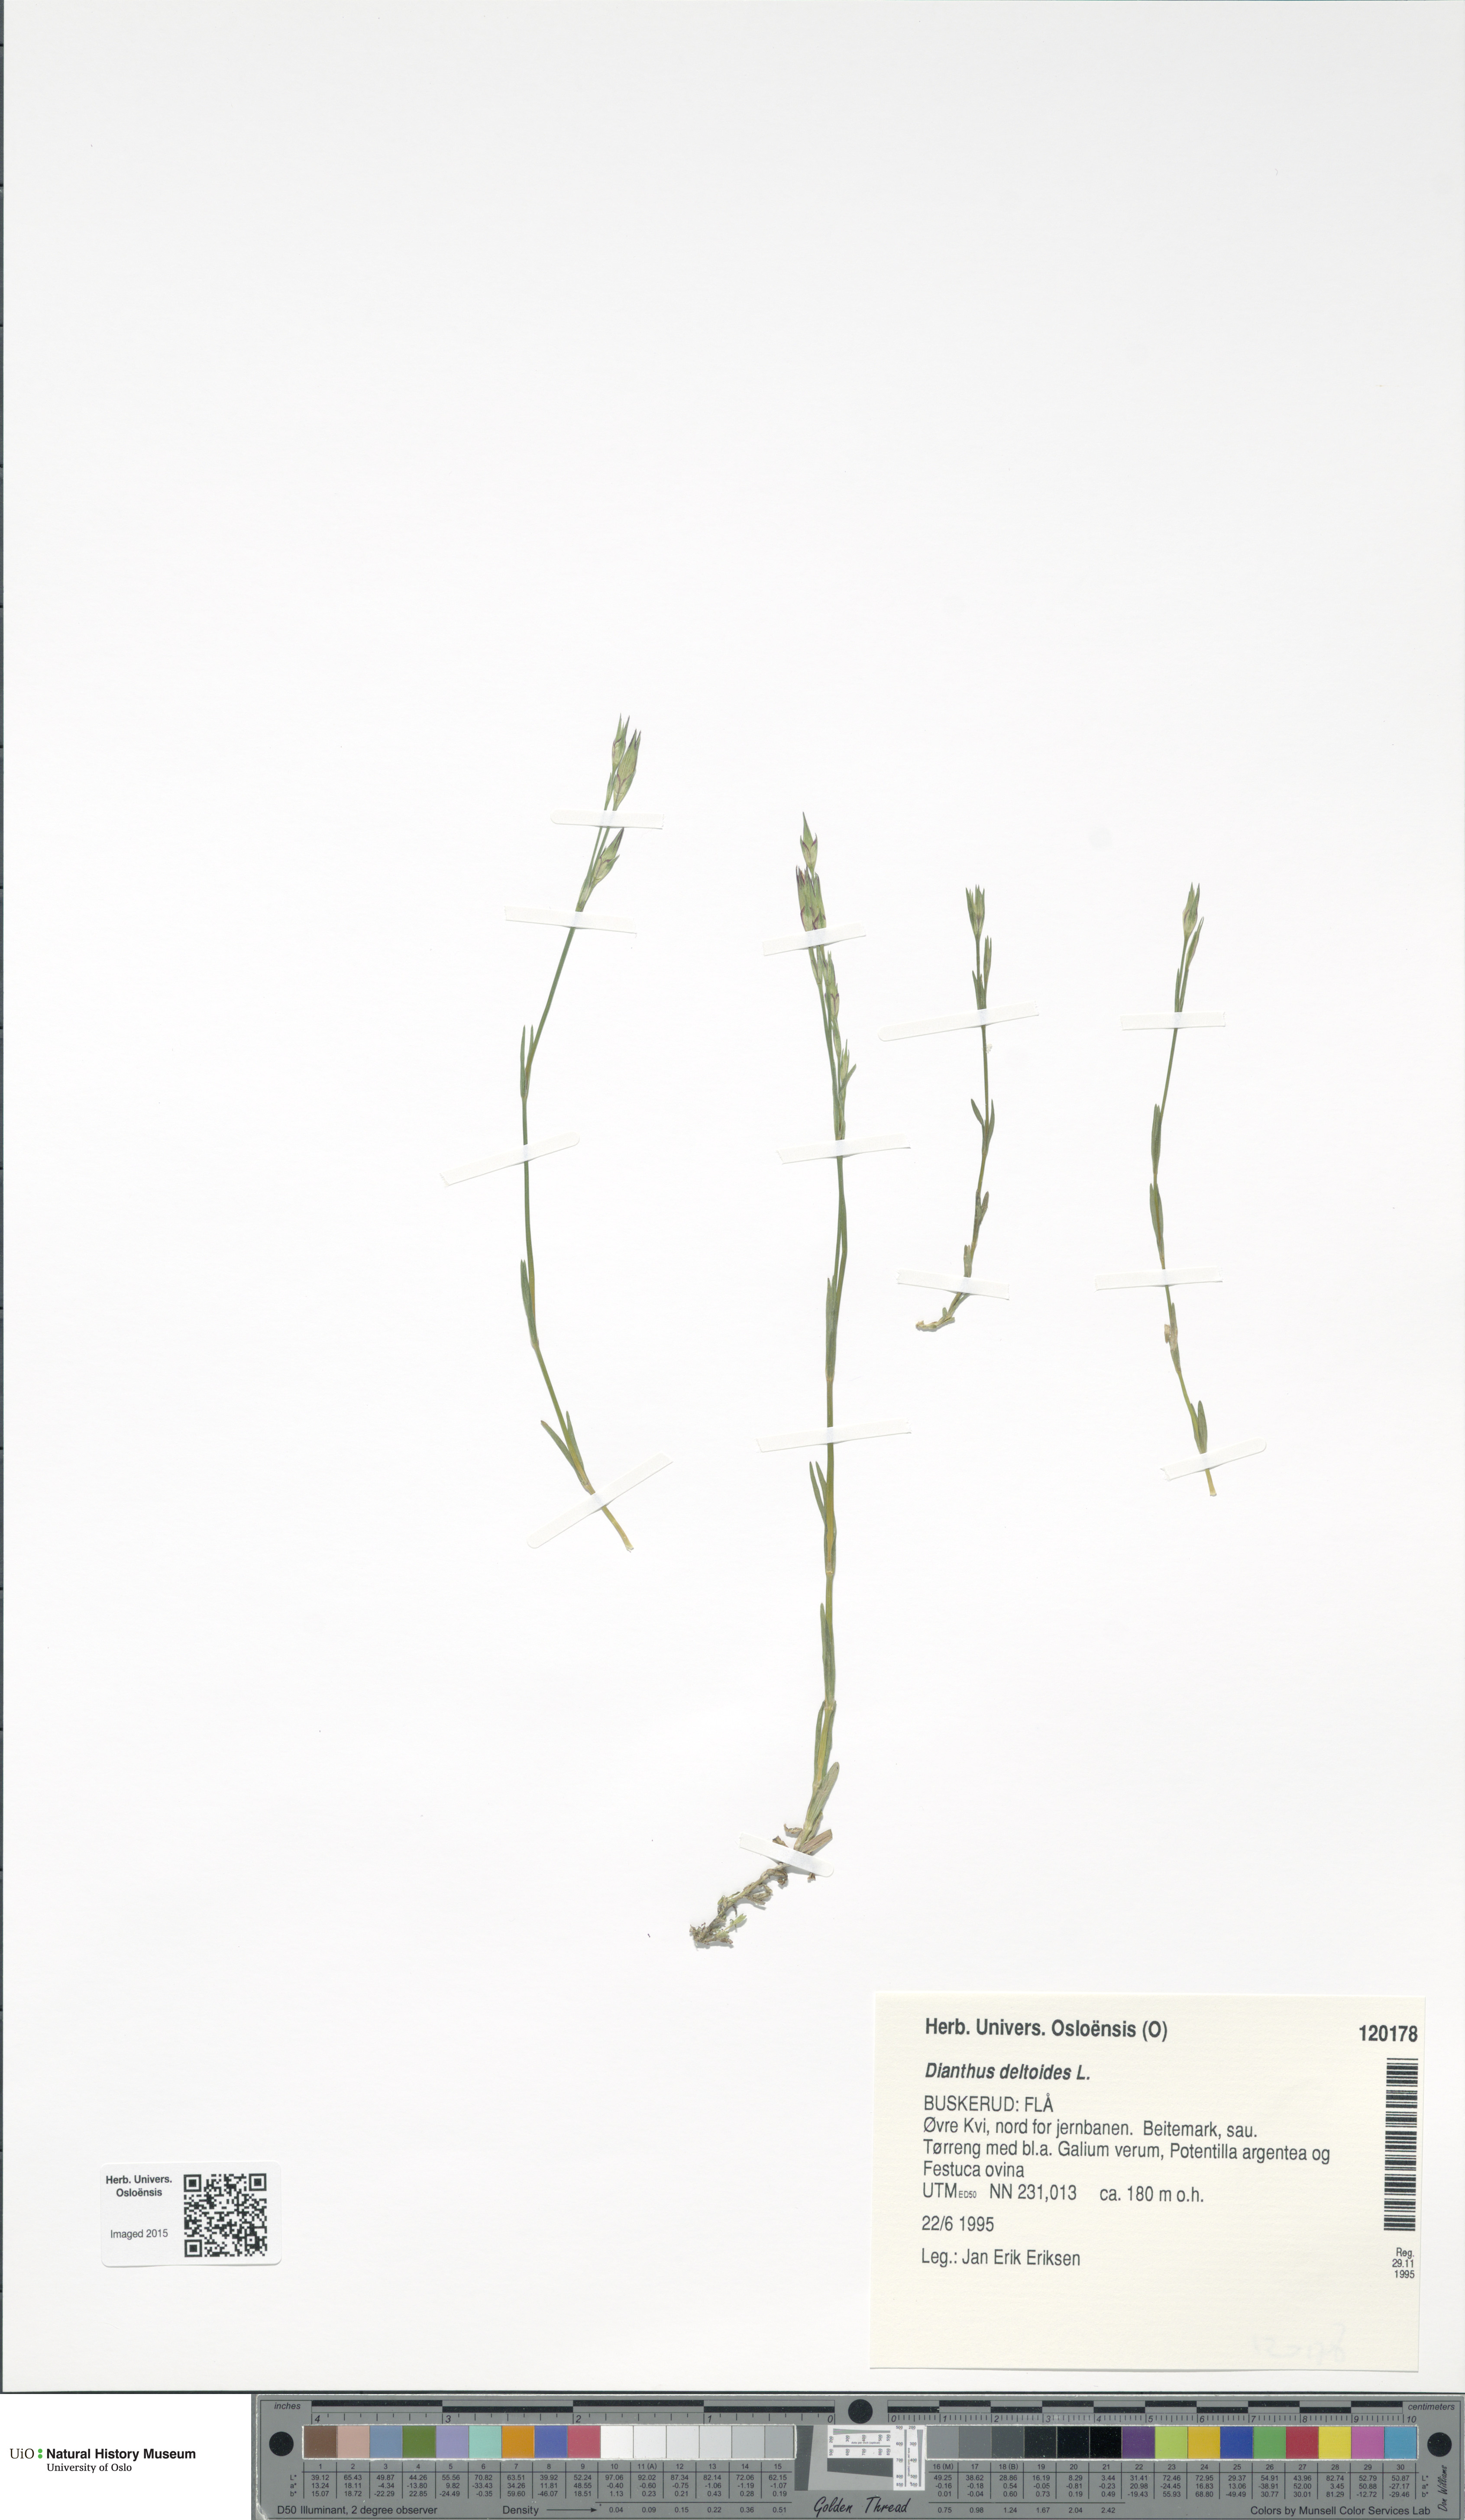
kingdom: Plantae
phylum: Tracheophyta
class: Magnoliopsida
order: Caryophyllales
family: Caryophyllaceae
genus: Dianthus
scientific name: Dianthus deltoides
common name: Maiden pink
